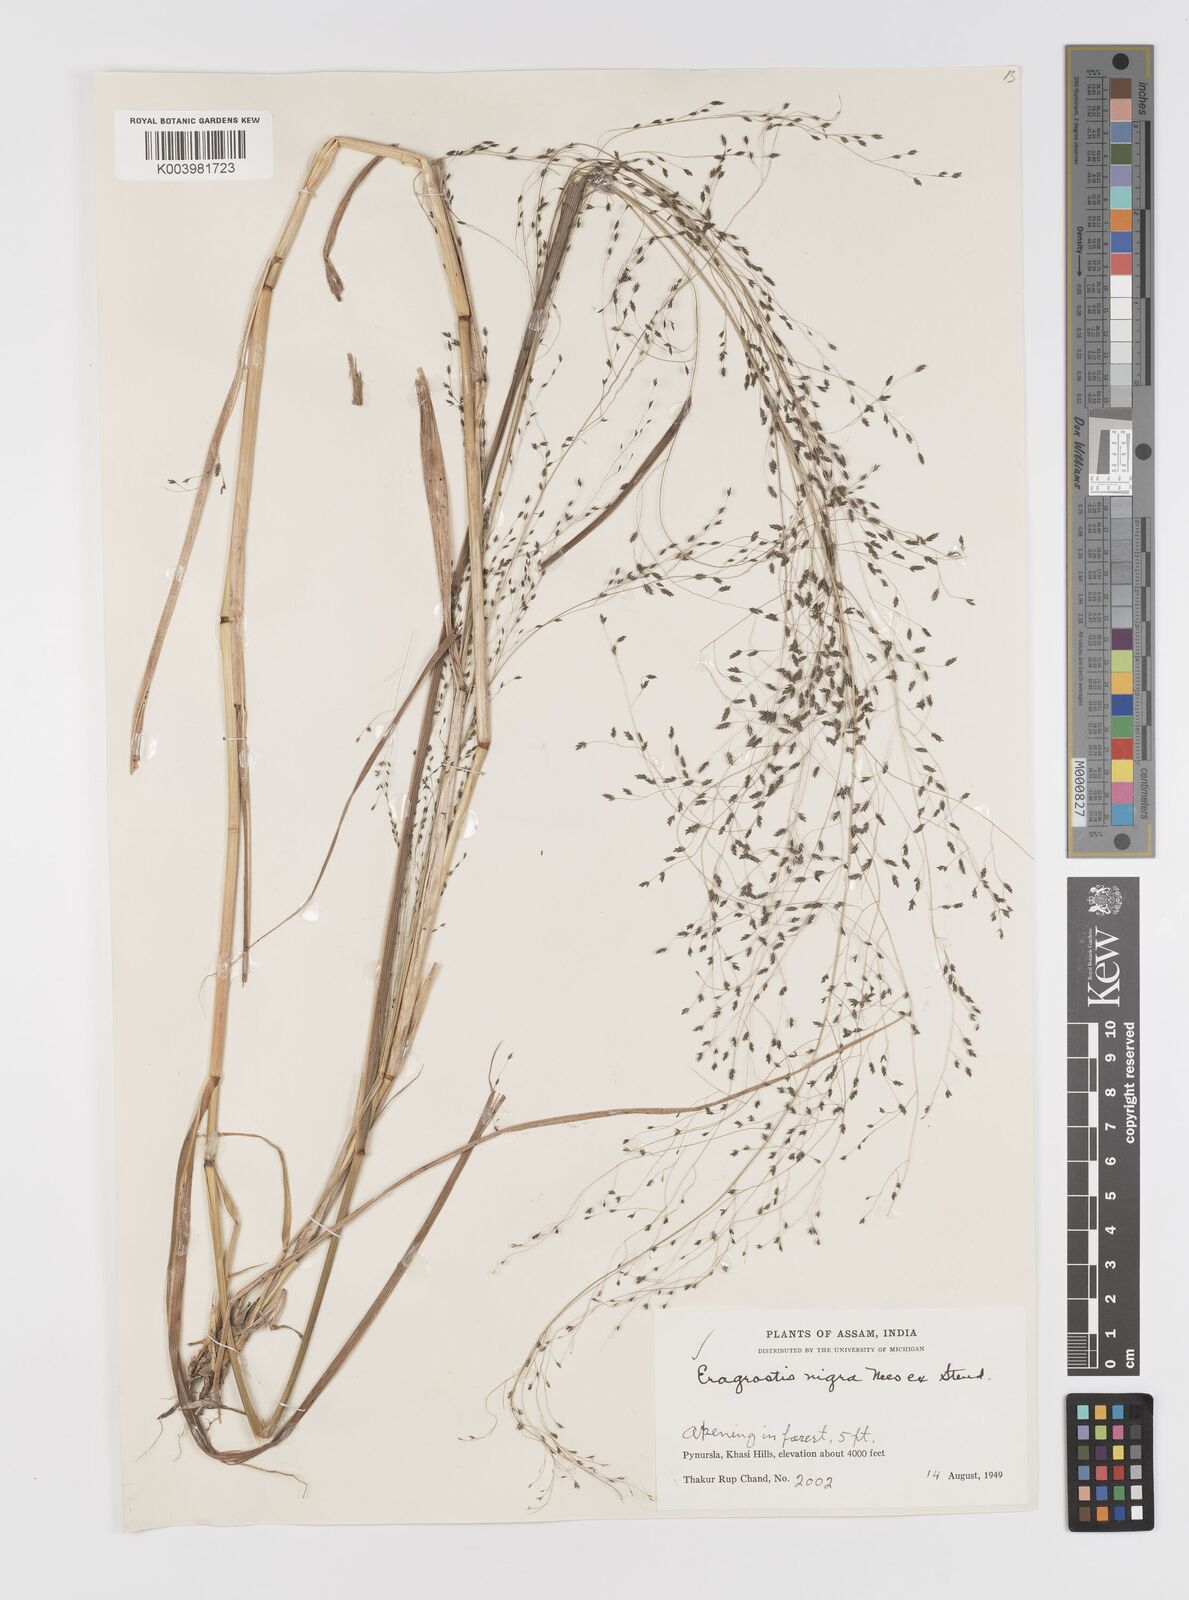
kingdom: Plantae
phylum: Tracheophyta
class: Liliopsida
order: Poales
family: Poaceae
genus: Eragrostis
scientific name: Eragrostis nigra
